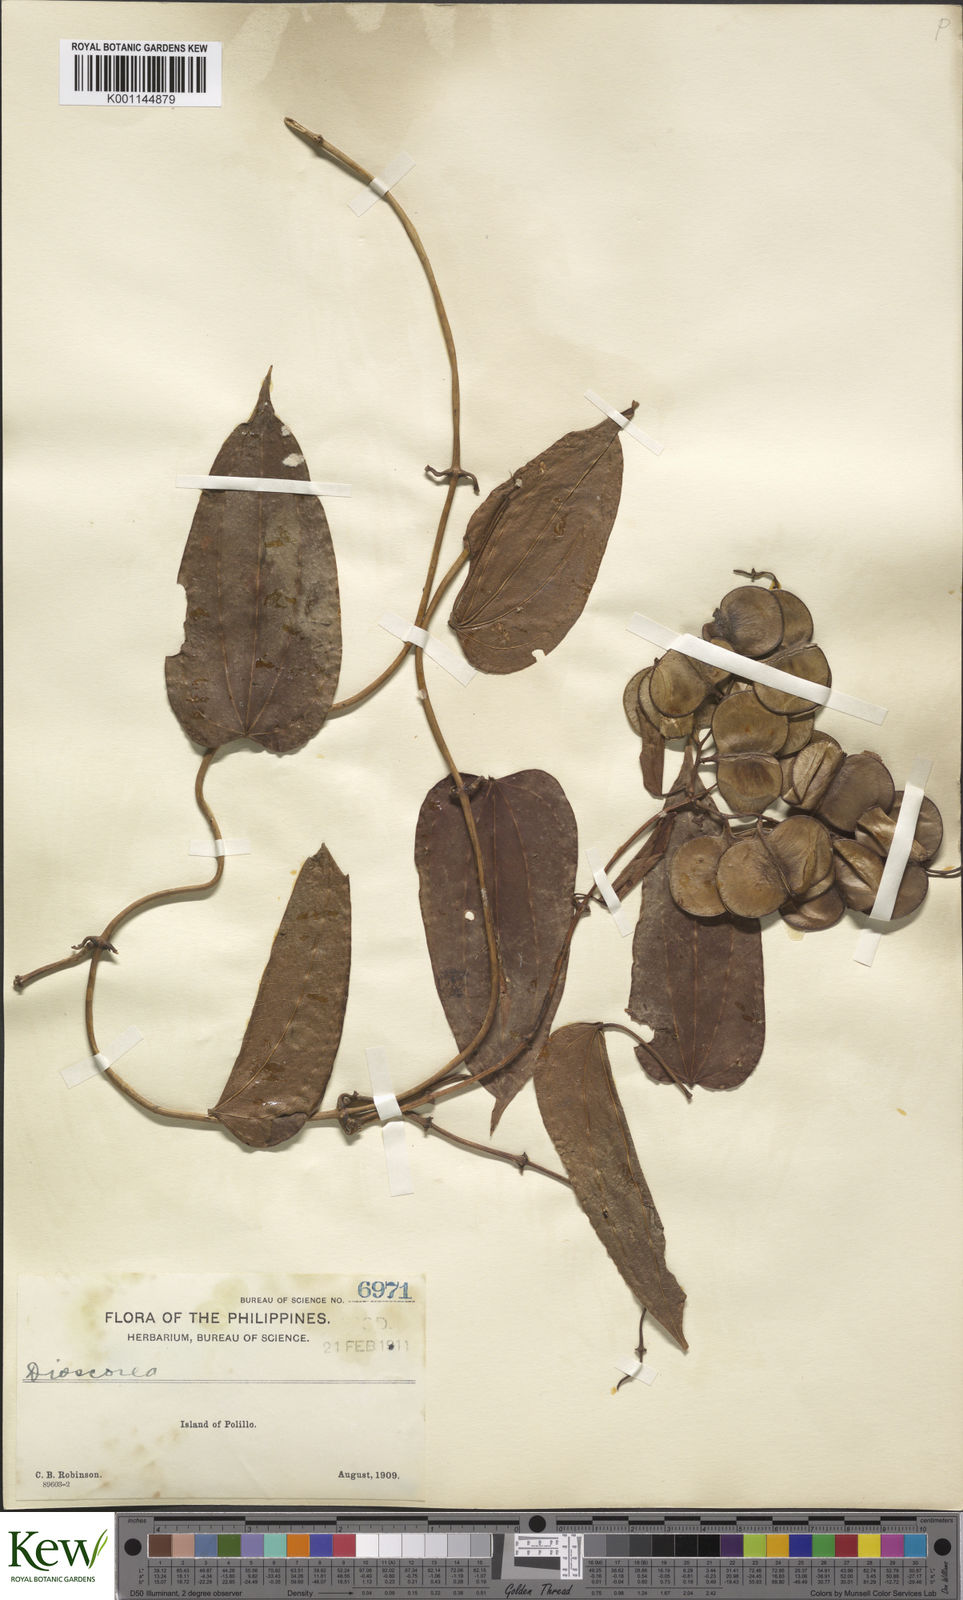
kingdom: Plantae
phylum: Tracheophyta
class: Liliopsida
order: Dioscoreales
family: Dioscoreaceae
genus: Dioscorea
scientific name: Dioscorea nummularia
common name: Pacific yam
